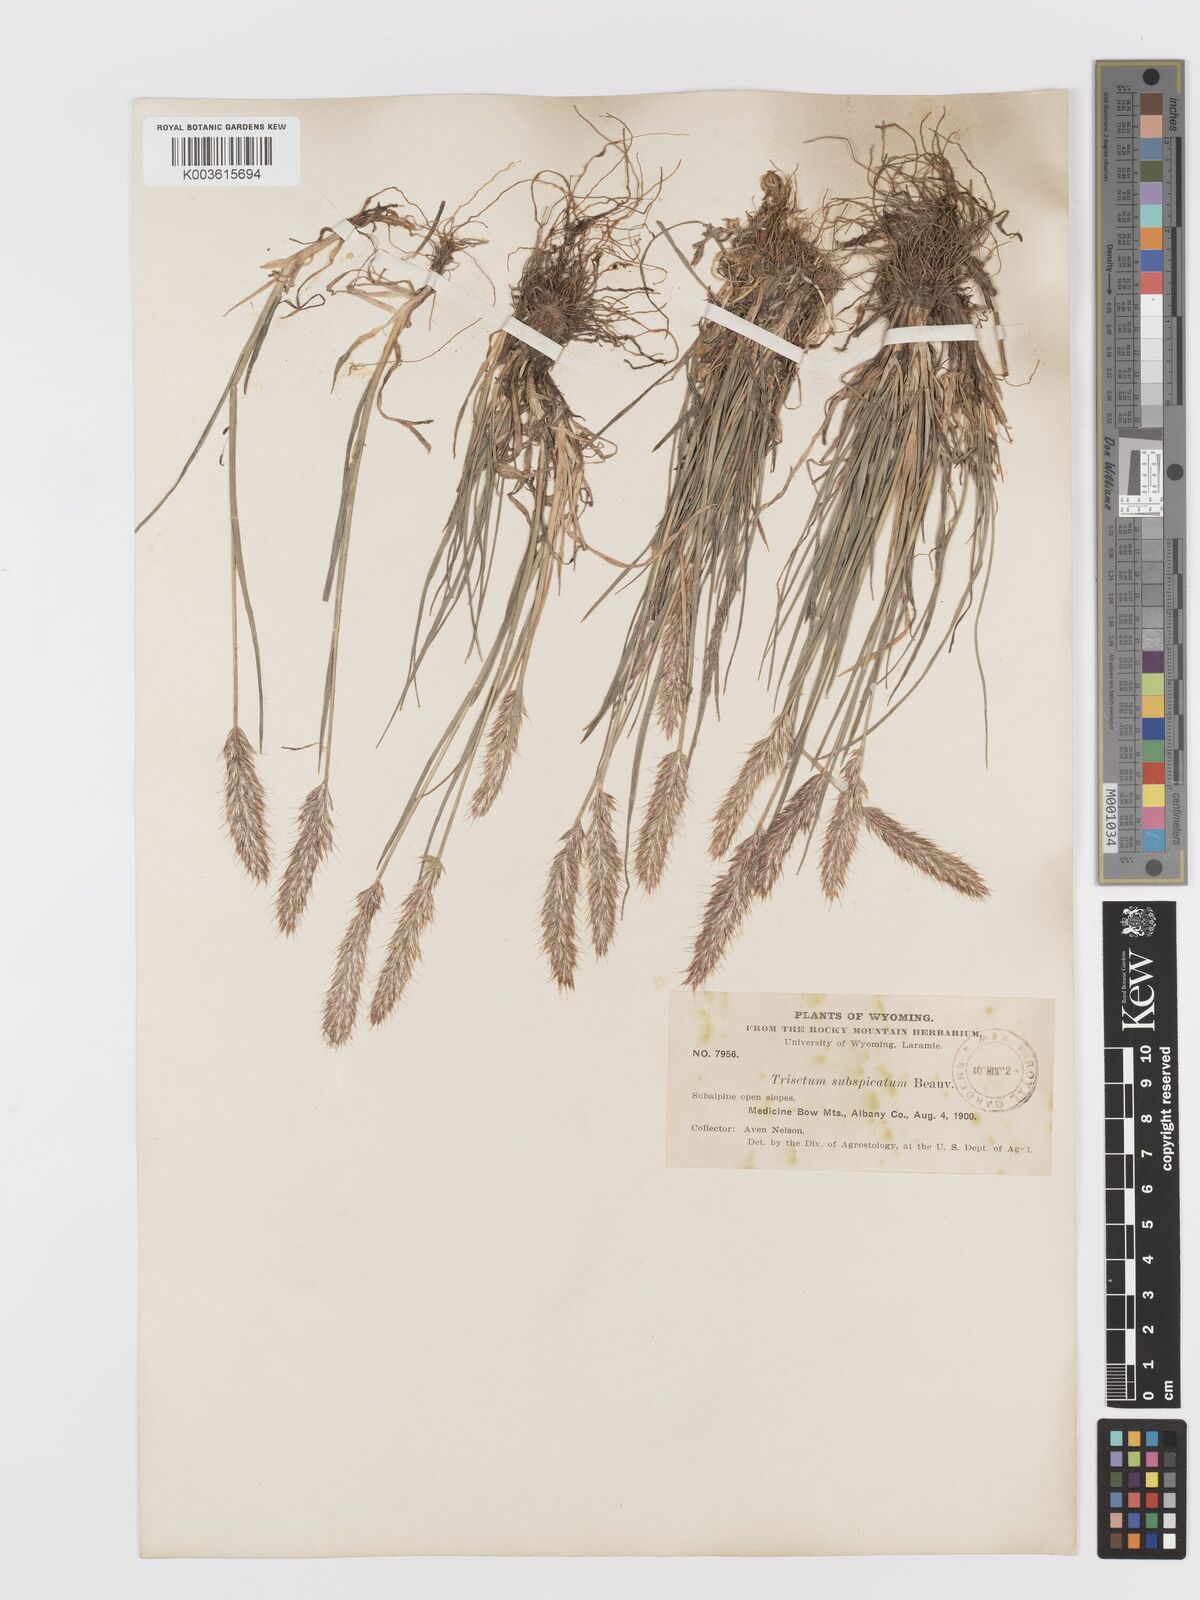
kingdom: Plantae
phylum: Tracheophyta
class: Liliopsida
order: Poales
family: Poaceae
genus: Koeleria
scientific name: Koeleria spicata
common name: Mountain trisetum
